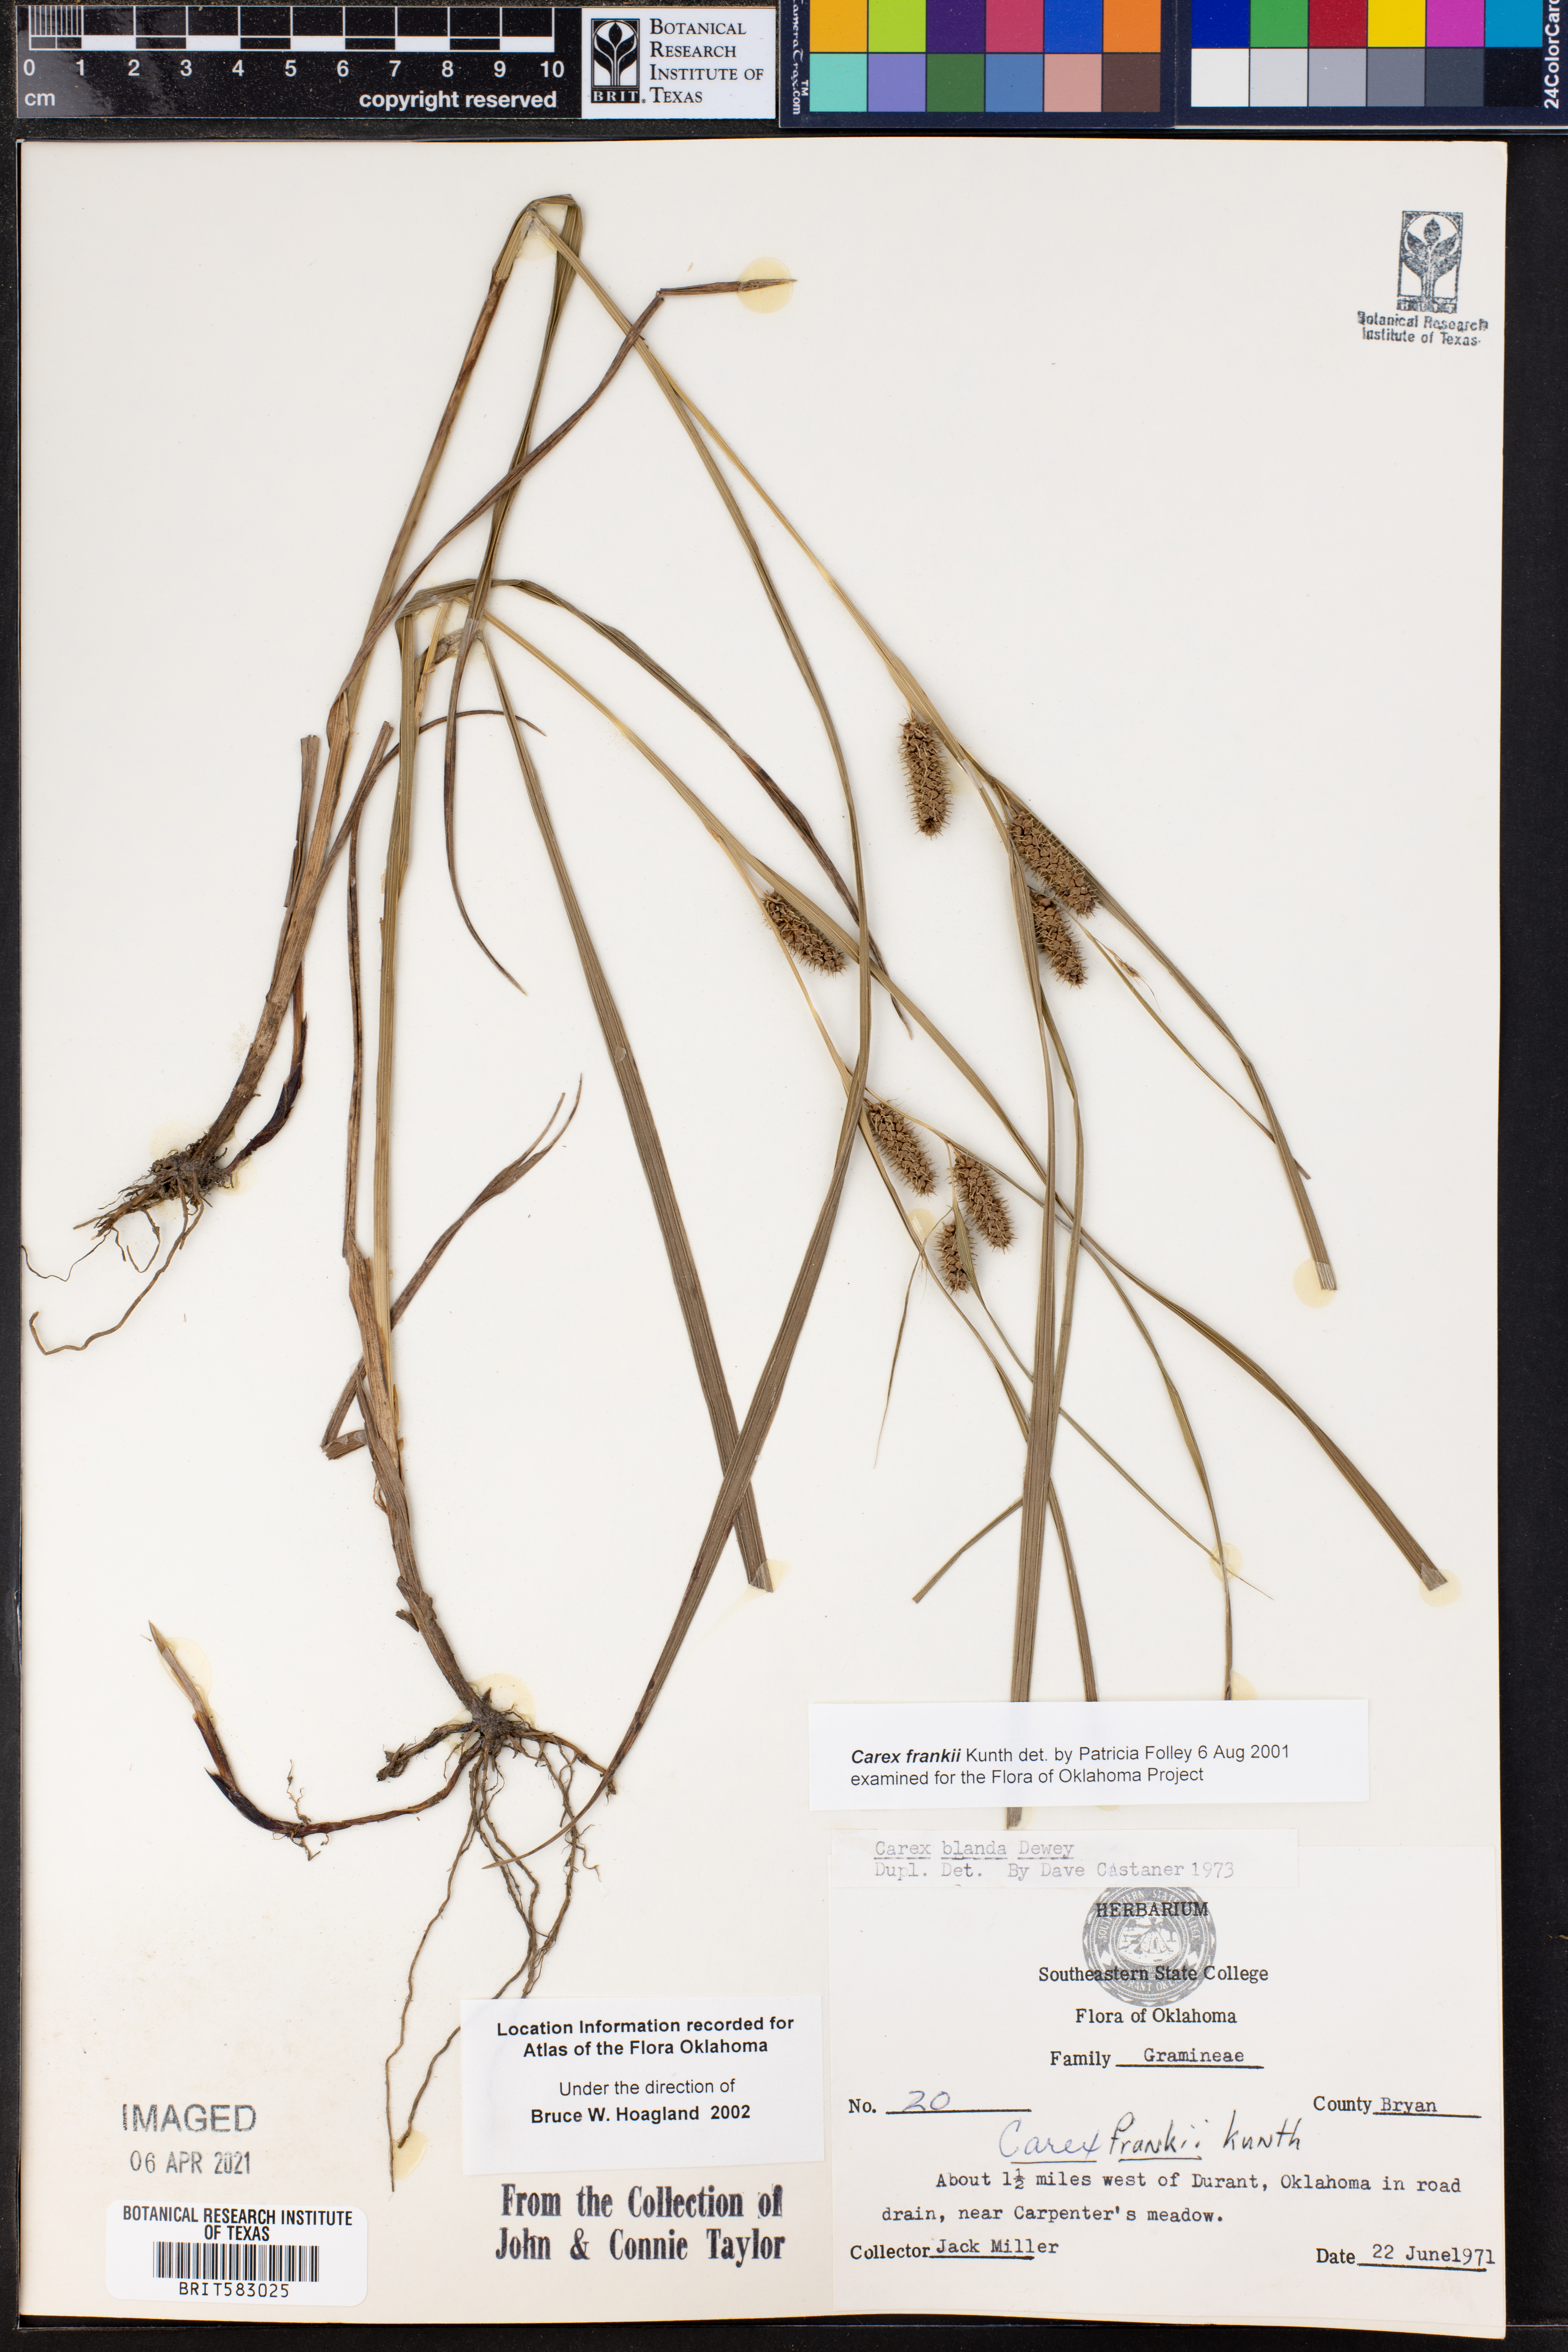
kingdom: Plantae
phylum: Tracheophyta
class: Liliopsida
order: Poales
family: Cyperaceae
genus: Carex
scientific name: Carex frankii
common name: Frank's sedge
